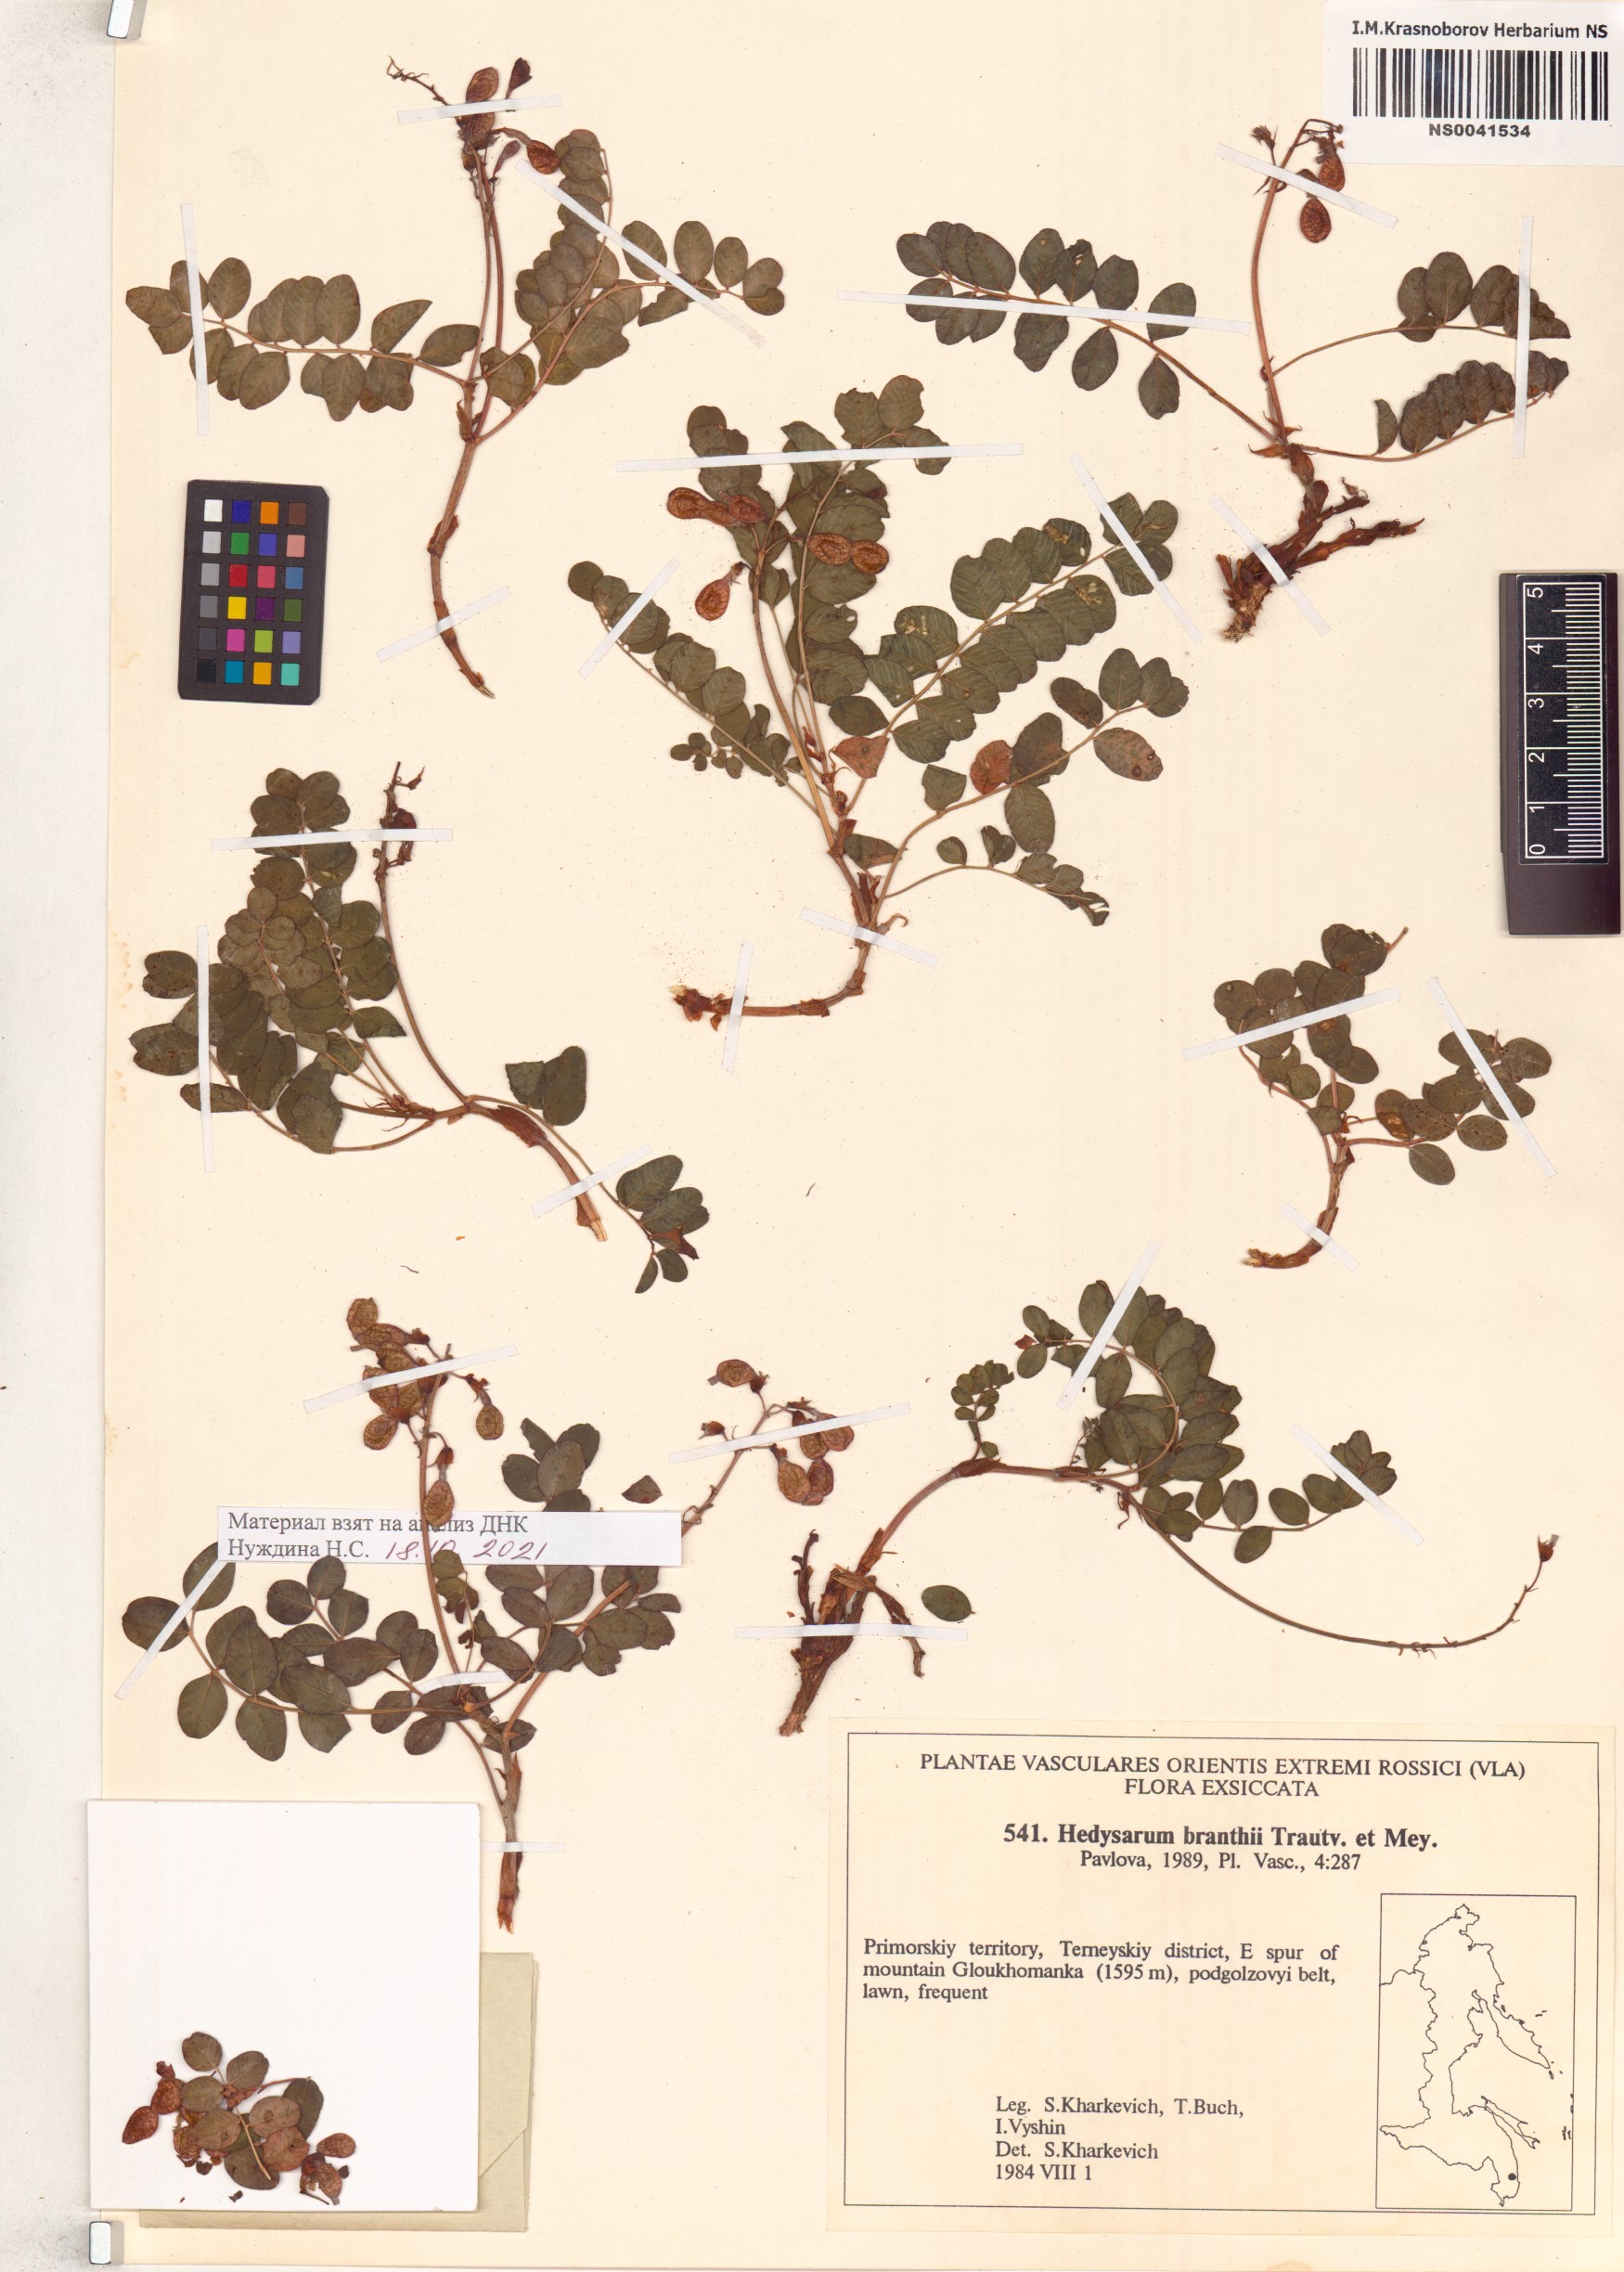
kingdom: Plantae
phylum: Tracheophyta
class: Magnoliopsida
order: Fabales
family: Fabaceae
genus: Hedysarum
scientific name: Hedysarum branthii
